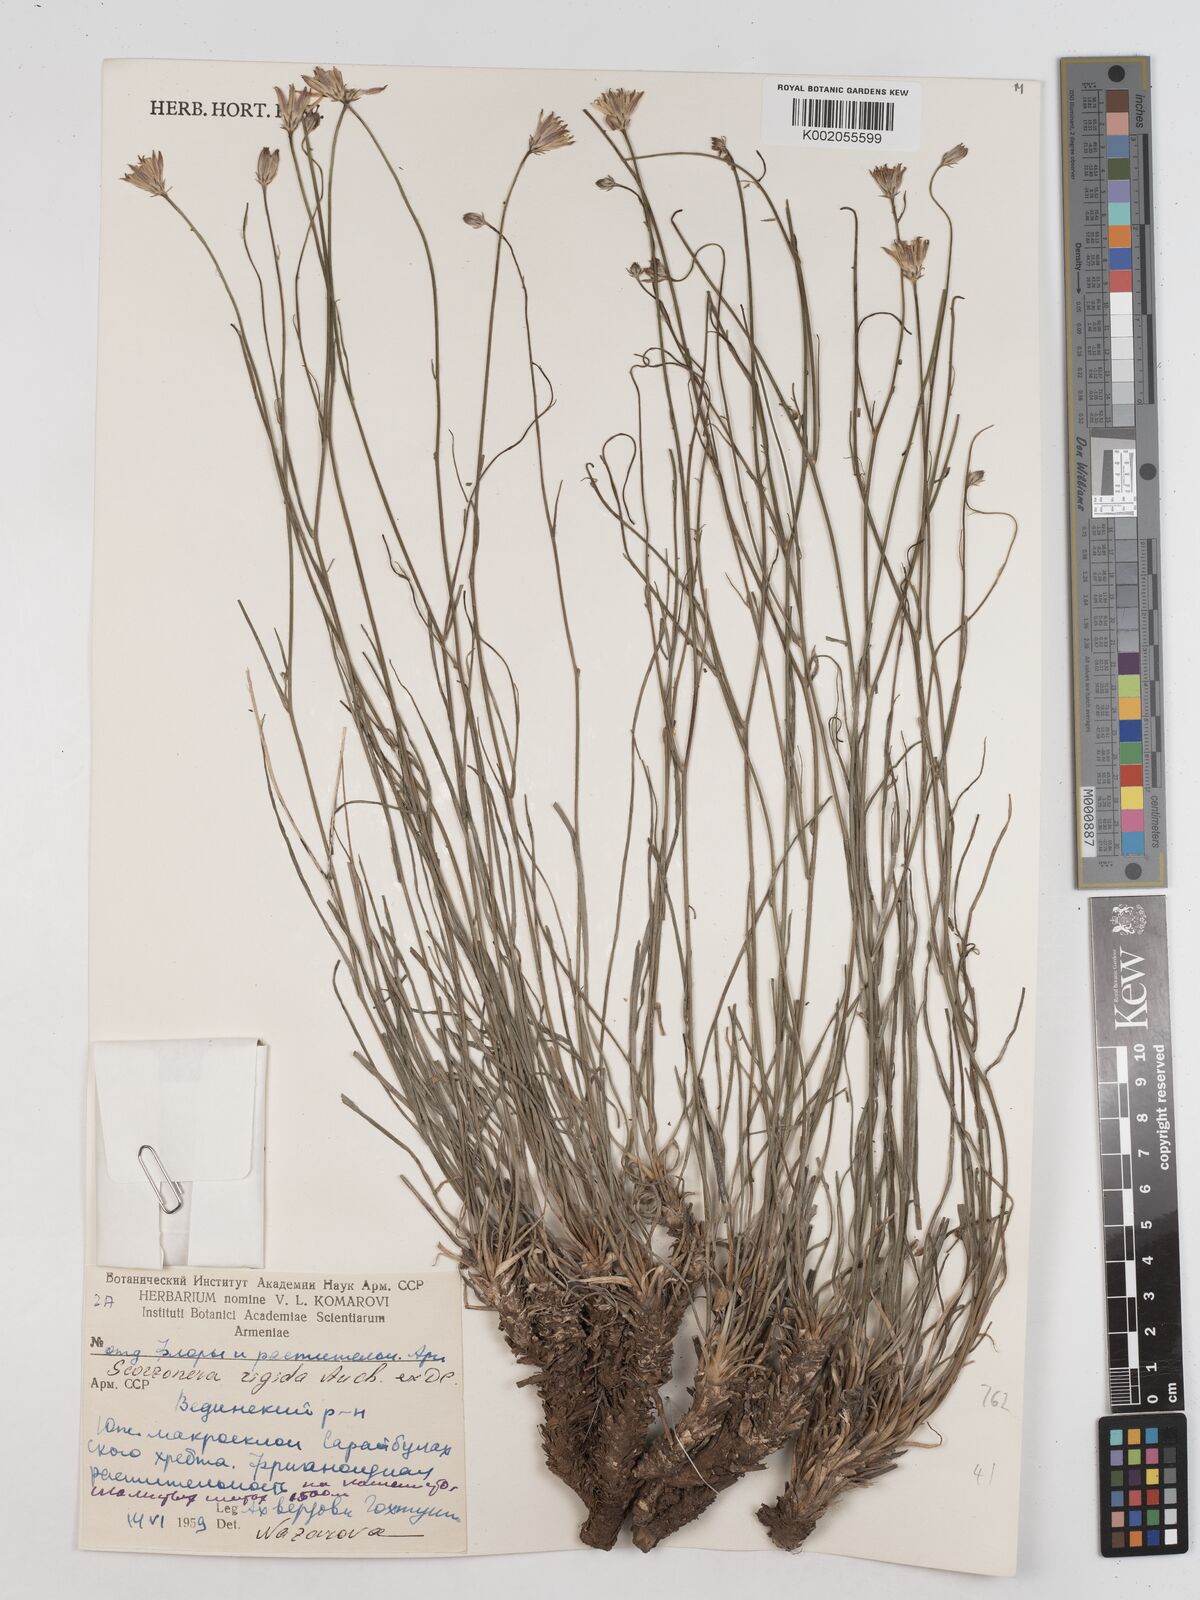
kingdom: Plantae
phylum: Tracheophyta
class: Magnoliopsida
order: Asterales
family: Asteraceae
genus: Goekyighitia
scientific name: Goekyighitia rigida
